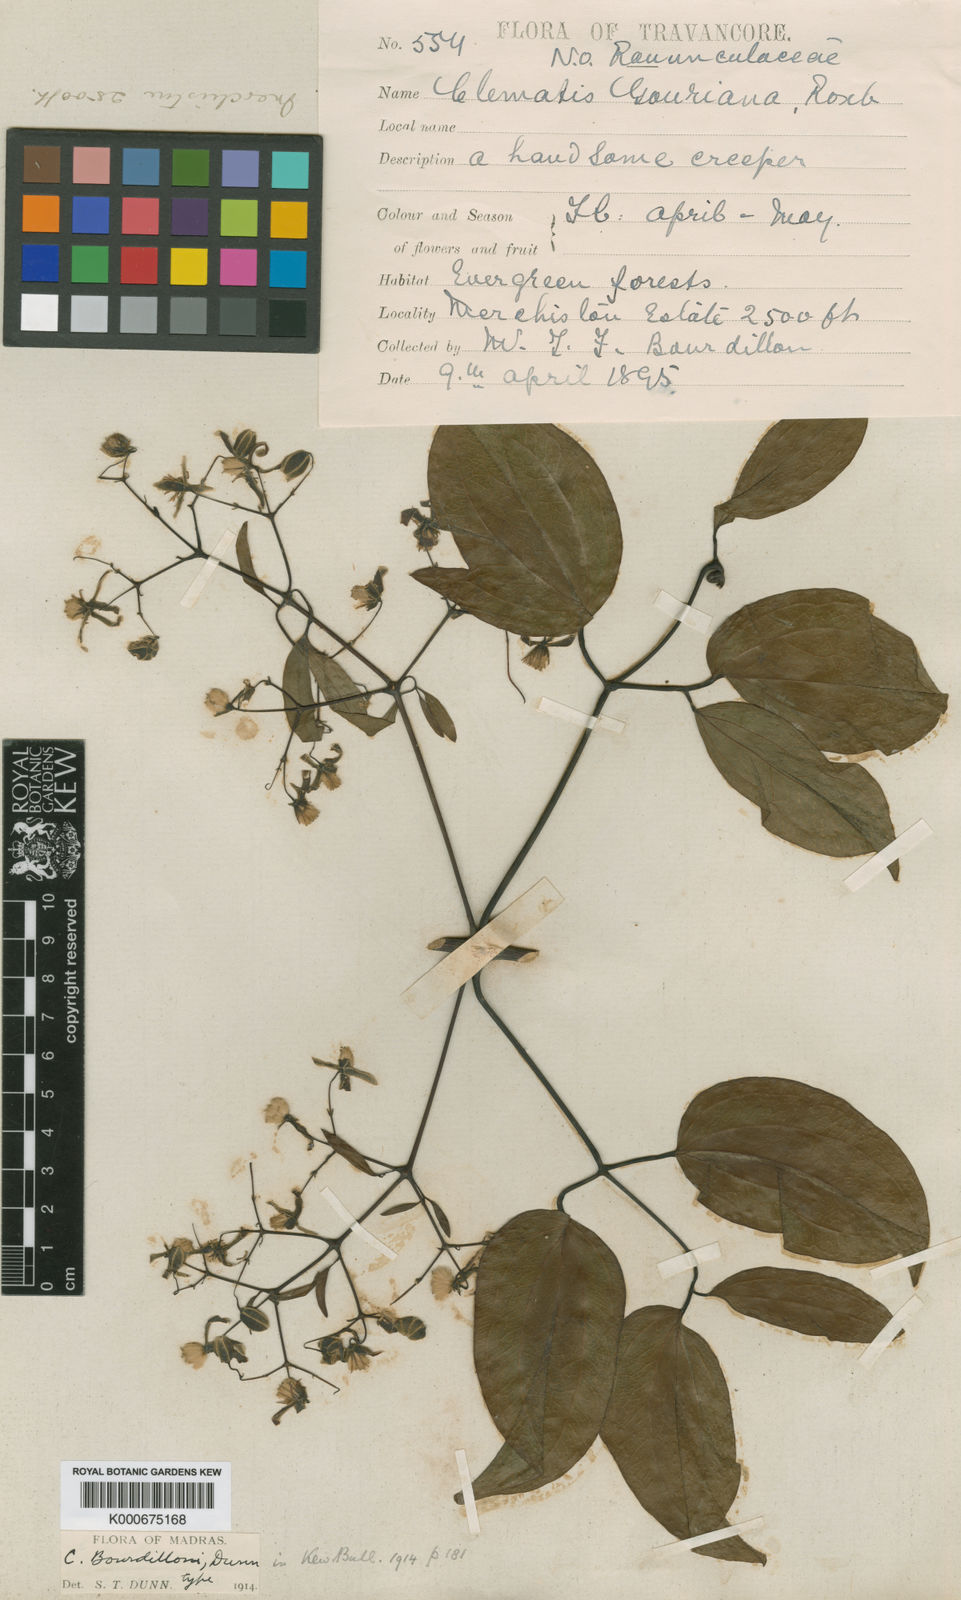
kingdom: Plantae
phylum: Tracheophyta
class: Magnoliopsida
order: Ranunculales
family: Ranunculaceae
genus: Clematis
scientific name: Clematis bourdillonii
